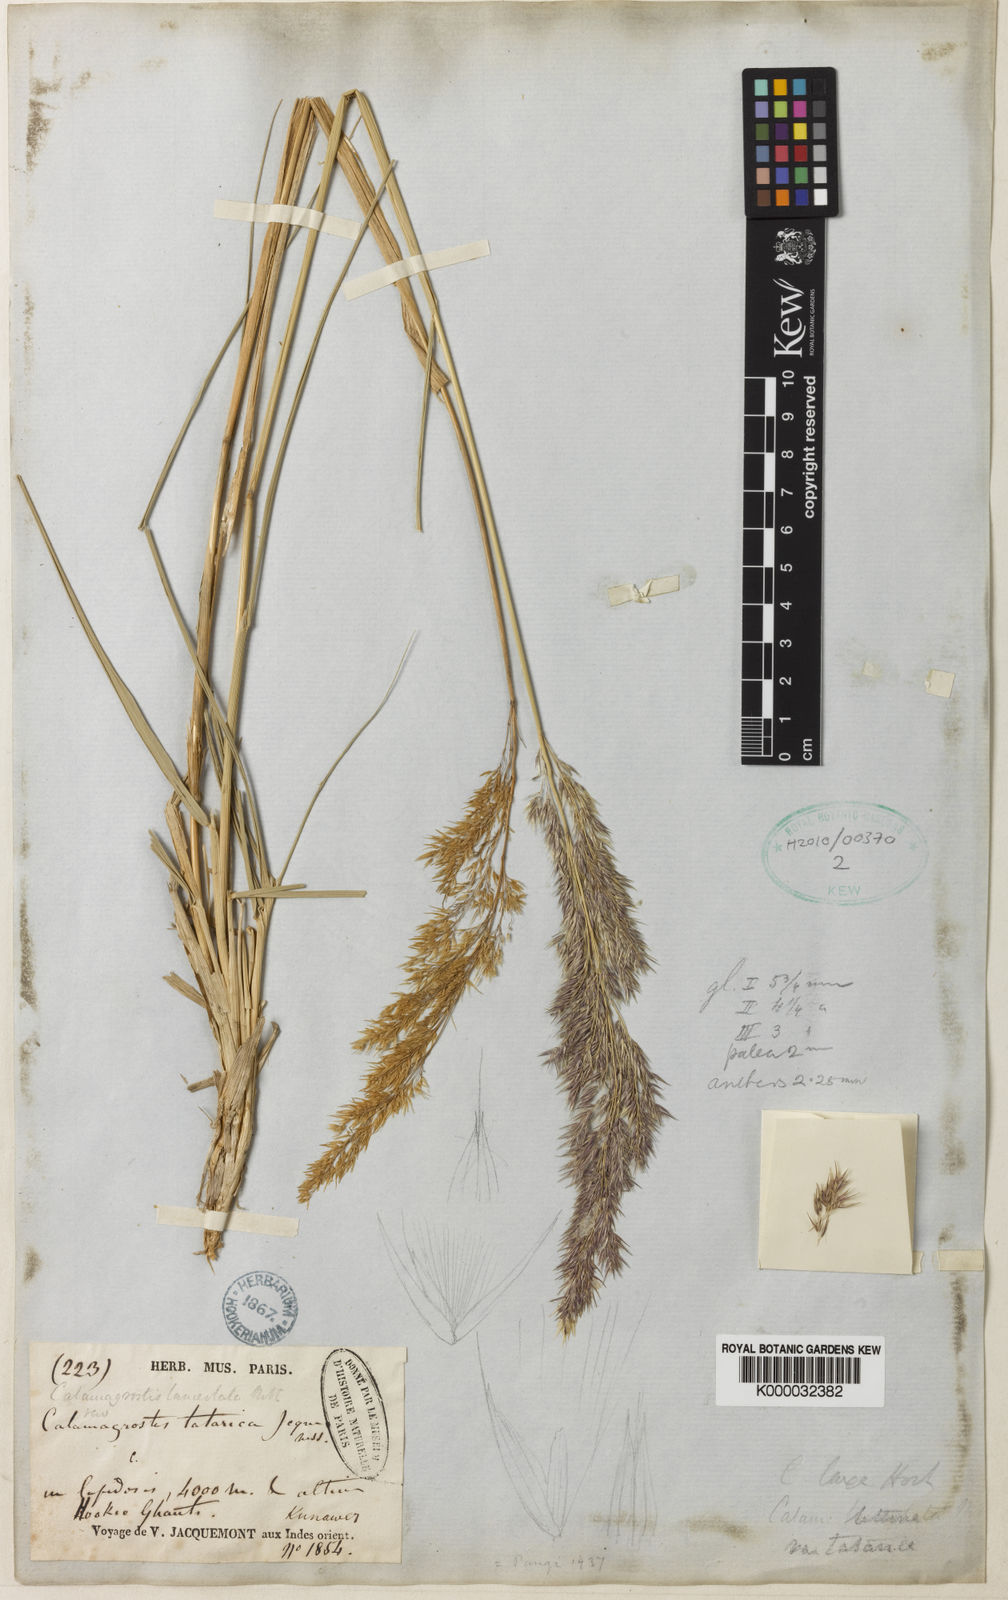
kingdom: Plantae
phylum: Tracheophyta
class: Liliopsida
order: Poales
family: Poaceae
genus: Calamagrostis
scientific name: Calamagrostis pseudophragmites
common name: Coastal small-reed
